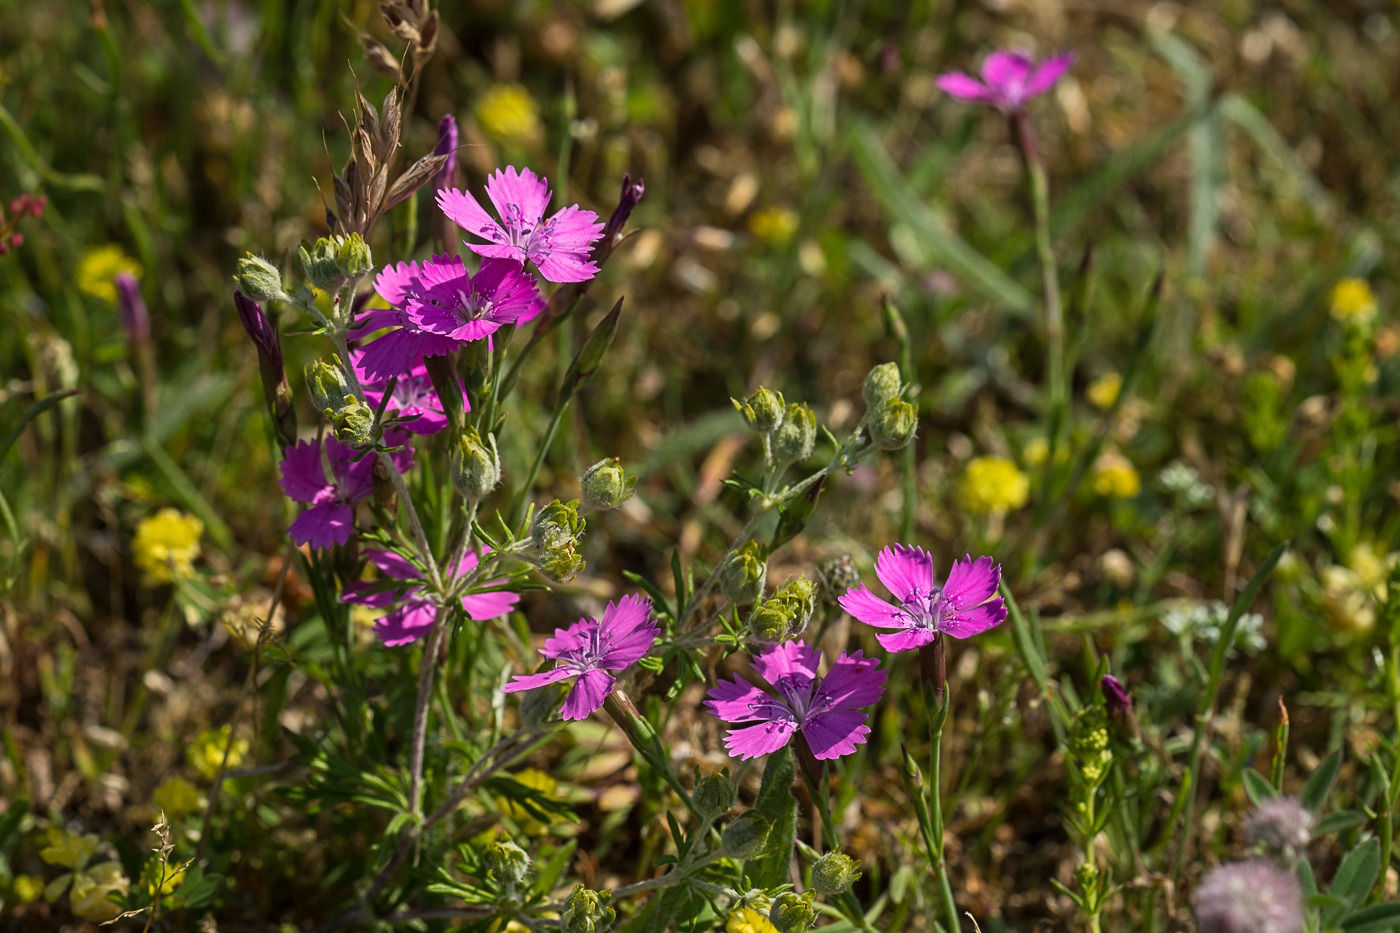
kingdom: Plantae
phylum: Tracheophyta
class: Magnoliopsida
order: Caryophyllales
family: Caryophyllaceae
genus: Dianthus
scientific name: Dianthus deltoides
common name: Bakke-nellike
